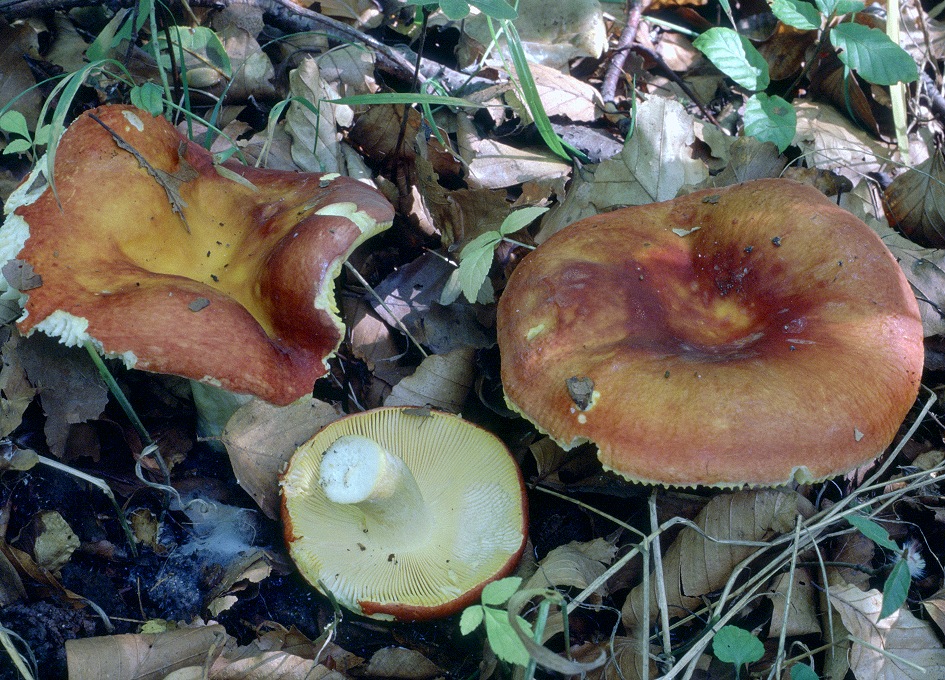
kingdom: Fungi
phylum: Basidiomycota
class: Agaricomycetes
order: Russulales
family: Russulaceae
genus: Russula
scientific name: Russula aurea
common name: gylden skørhat
